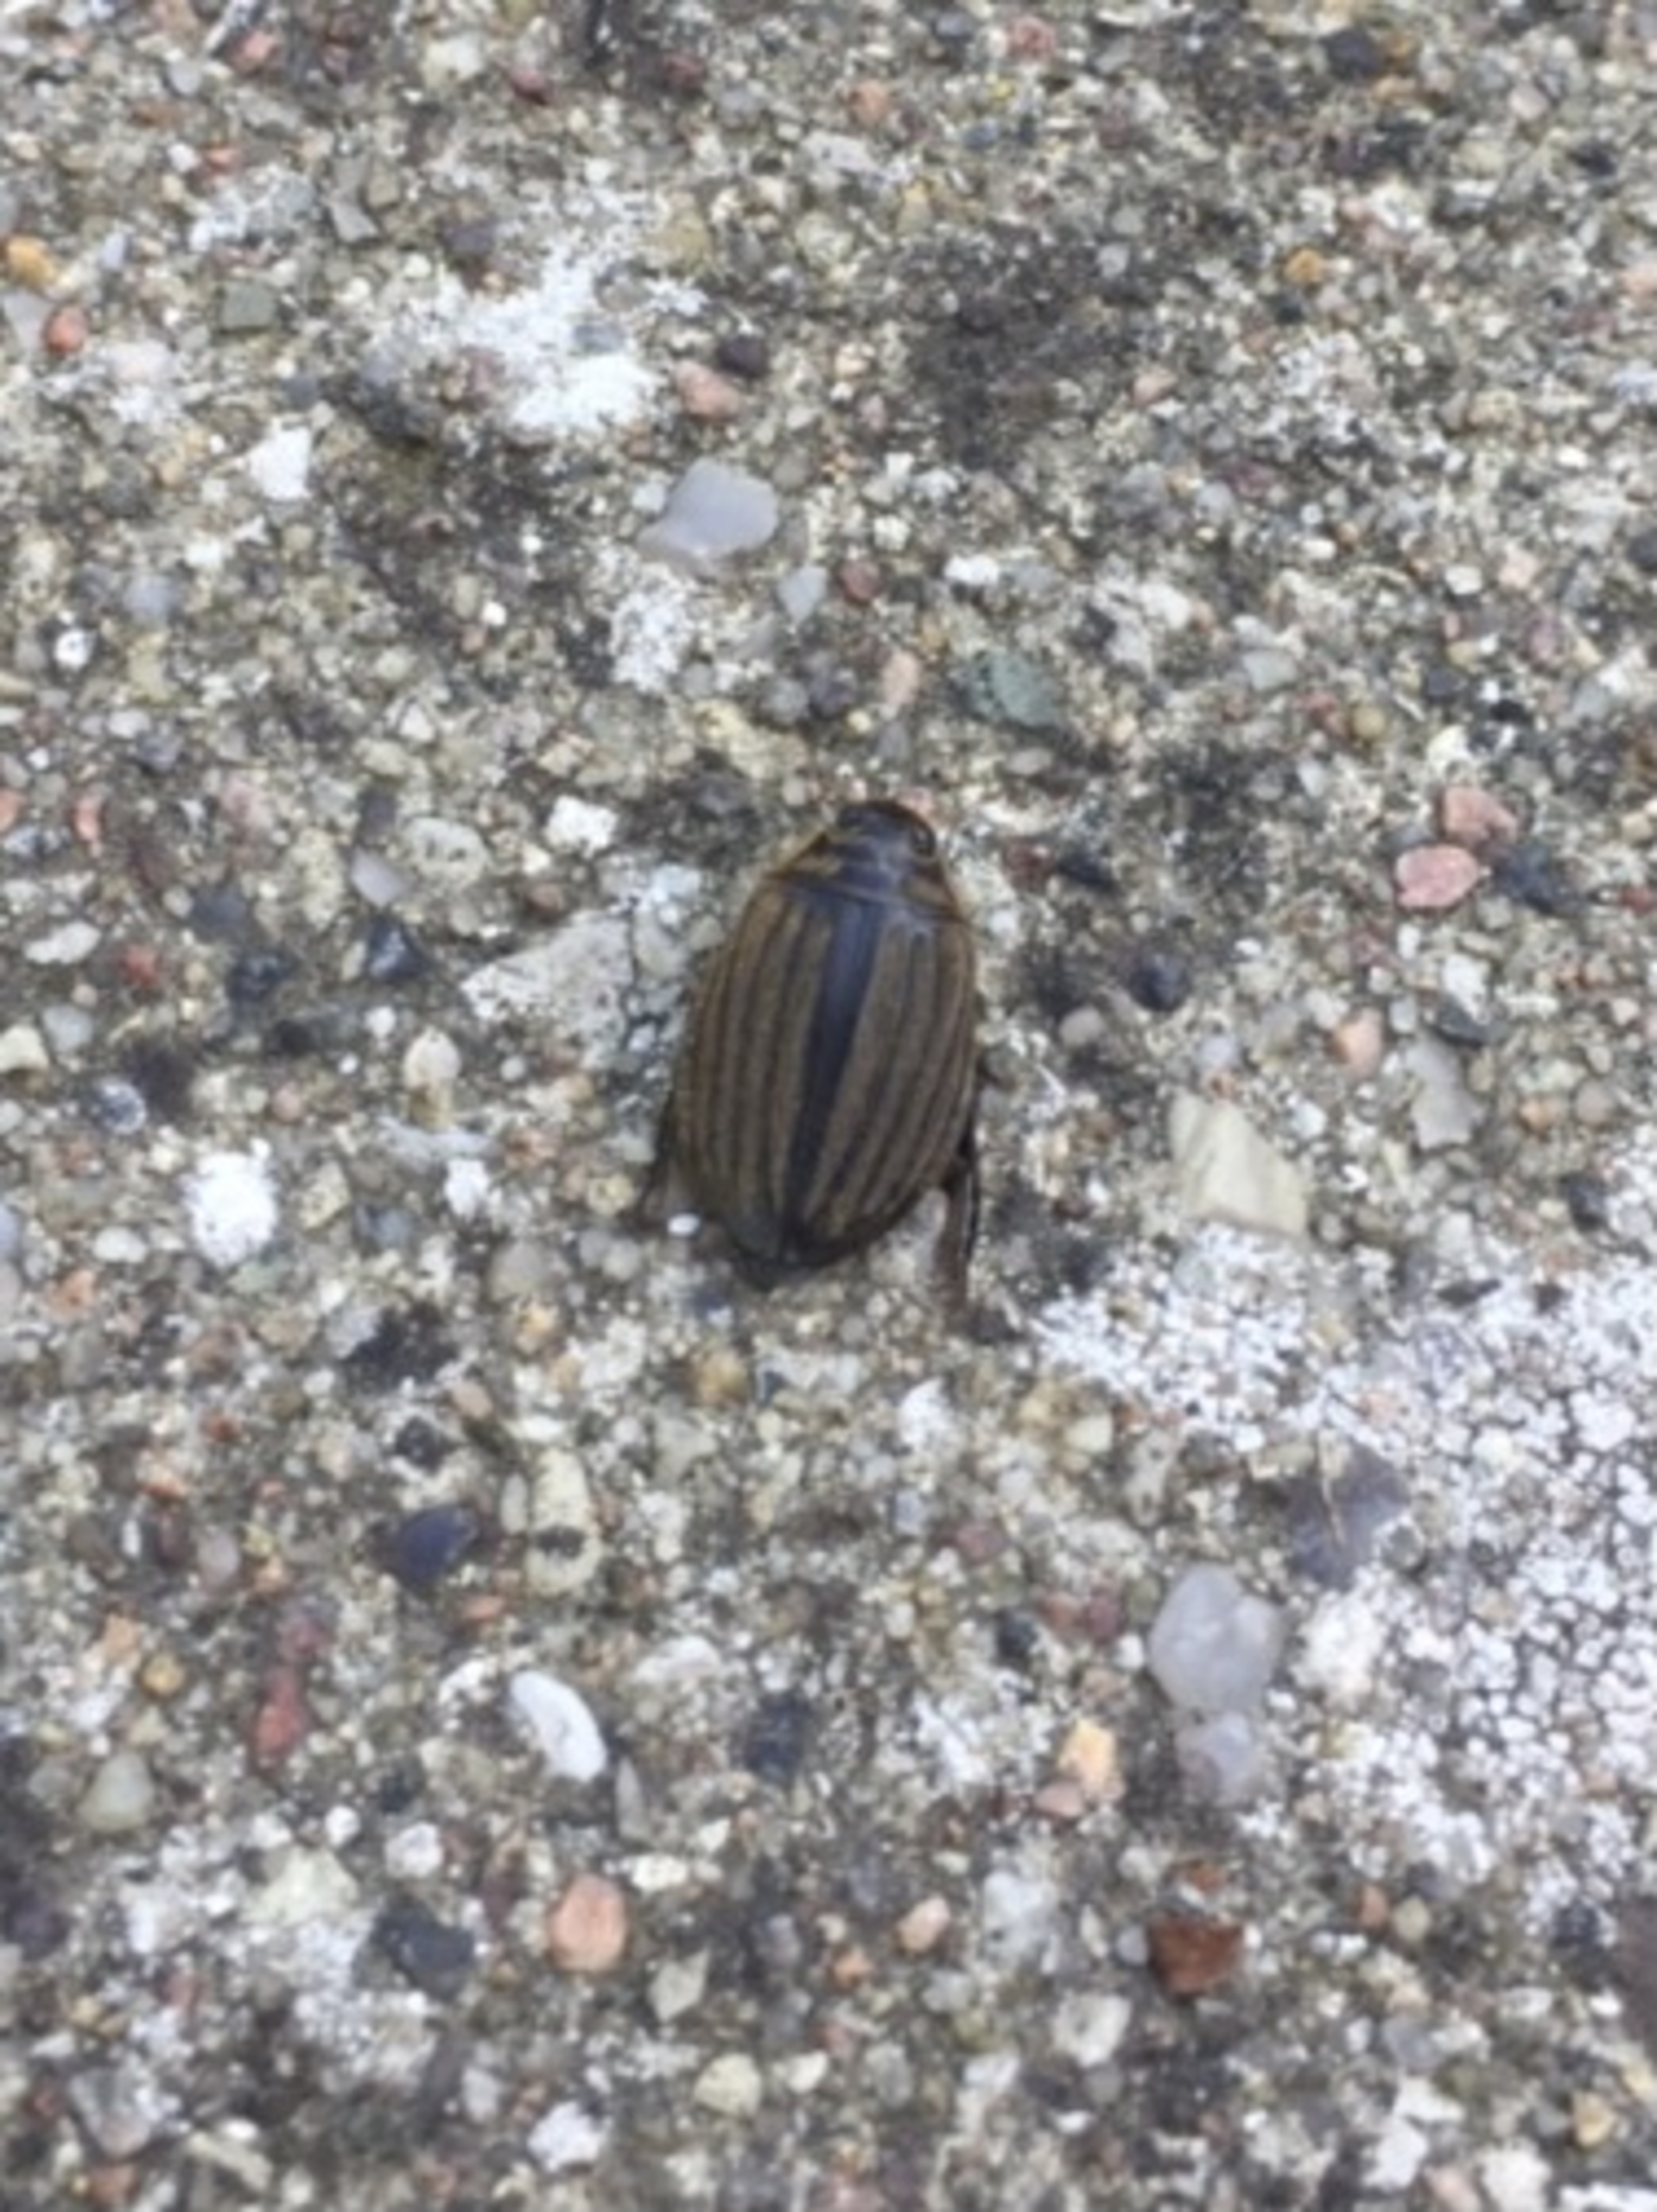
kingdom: Animalia
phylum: Arthropoda
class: Insecta
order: Coleoptera
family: Dytiscidae
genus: Acilius
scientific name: Acilius sulcatus
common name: Stribet skivevandkalv
